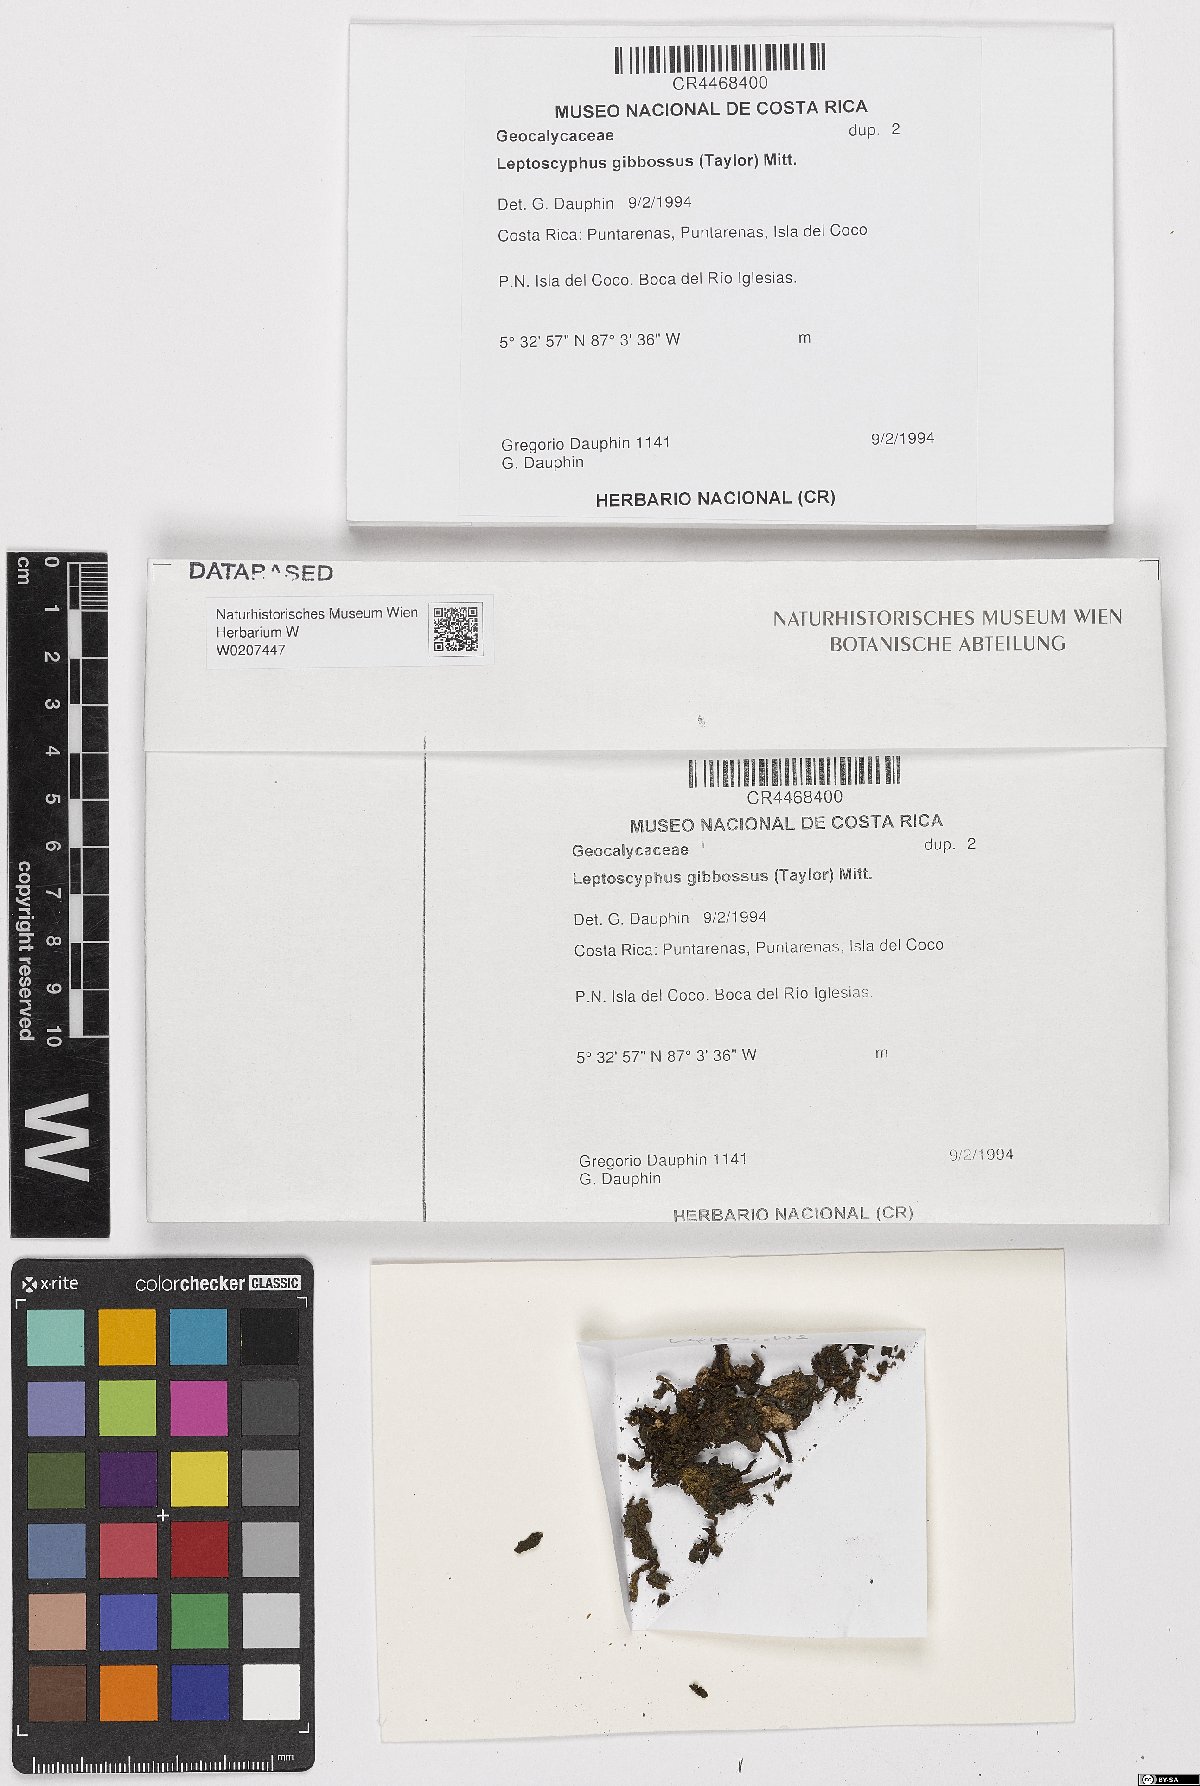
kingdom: Plantae
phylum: Marchantiophyta
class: Jungermanniopsida
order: Jungermanniales
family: Lophocoleaceae
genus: Leptoscyphus
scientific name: Leptoscyphus gibbosus
